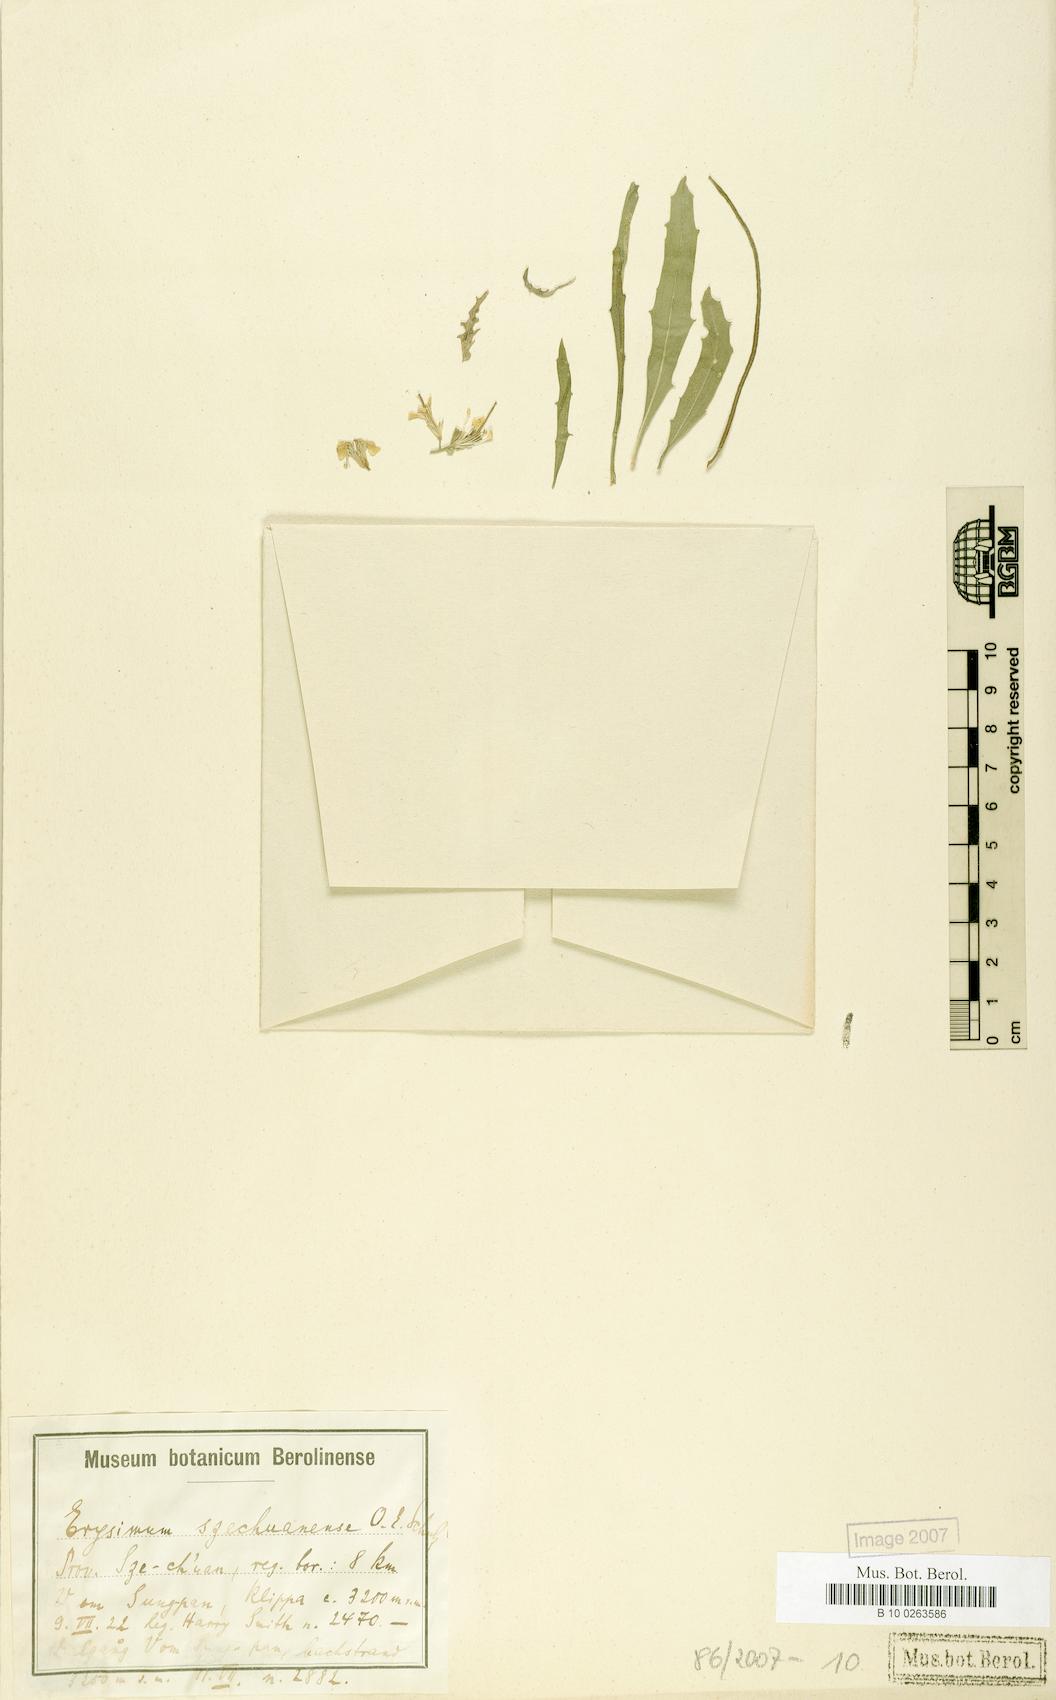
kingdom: Plantae
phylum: Tracheophyta
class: Magnoliopsida
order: Brassicales
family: Brassicaceae
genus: Erysimum
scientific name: Erysimum benthamii
